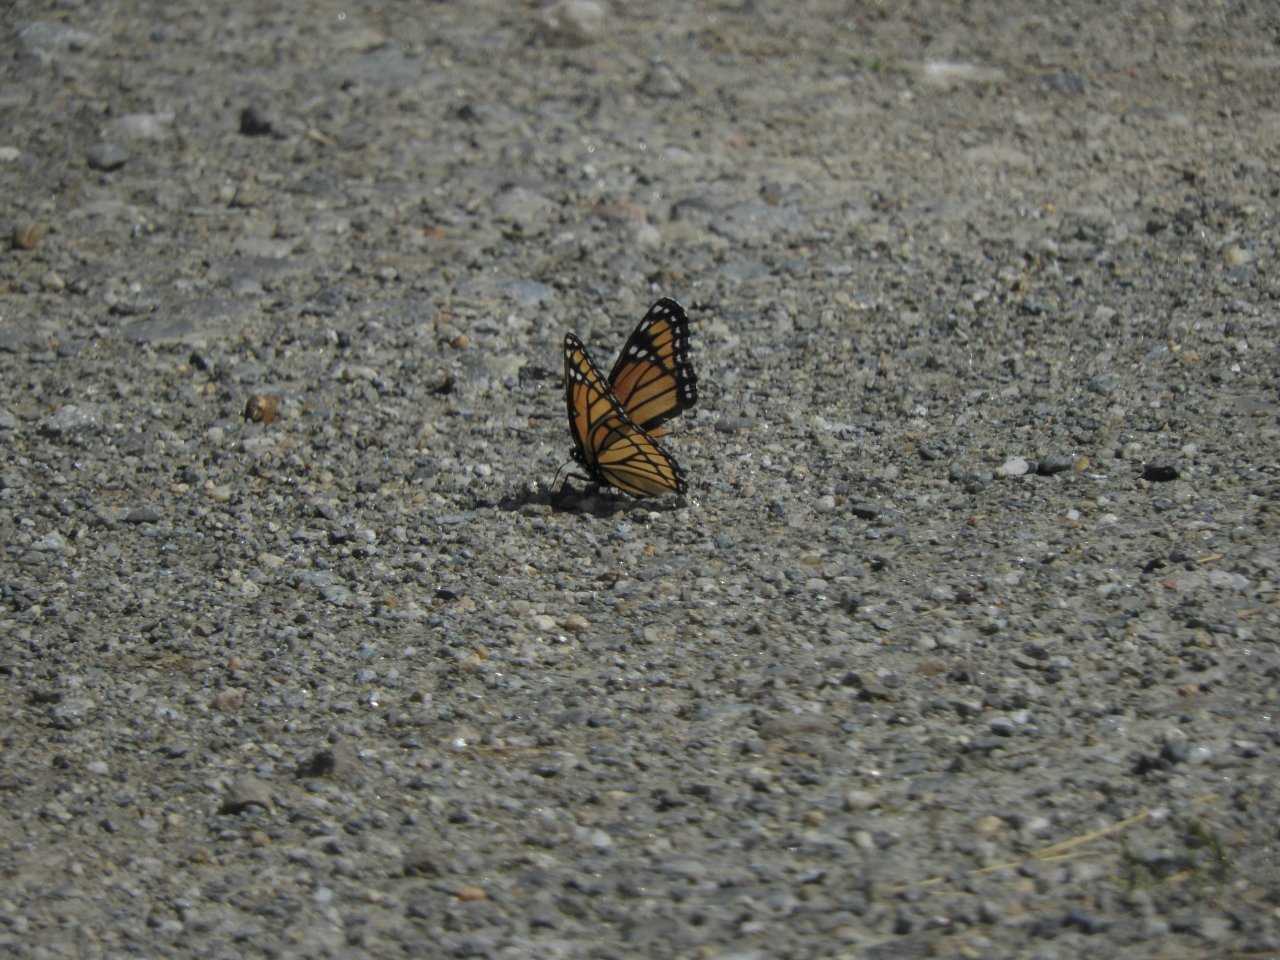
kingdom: Animalia
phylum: Arthropoda
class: Insecta
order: Lepidoptera
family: Nymphalidae
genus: Limenitis
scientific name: Limenitis archippus
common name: Viceroy
